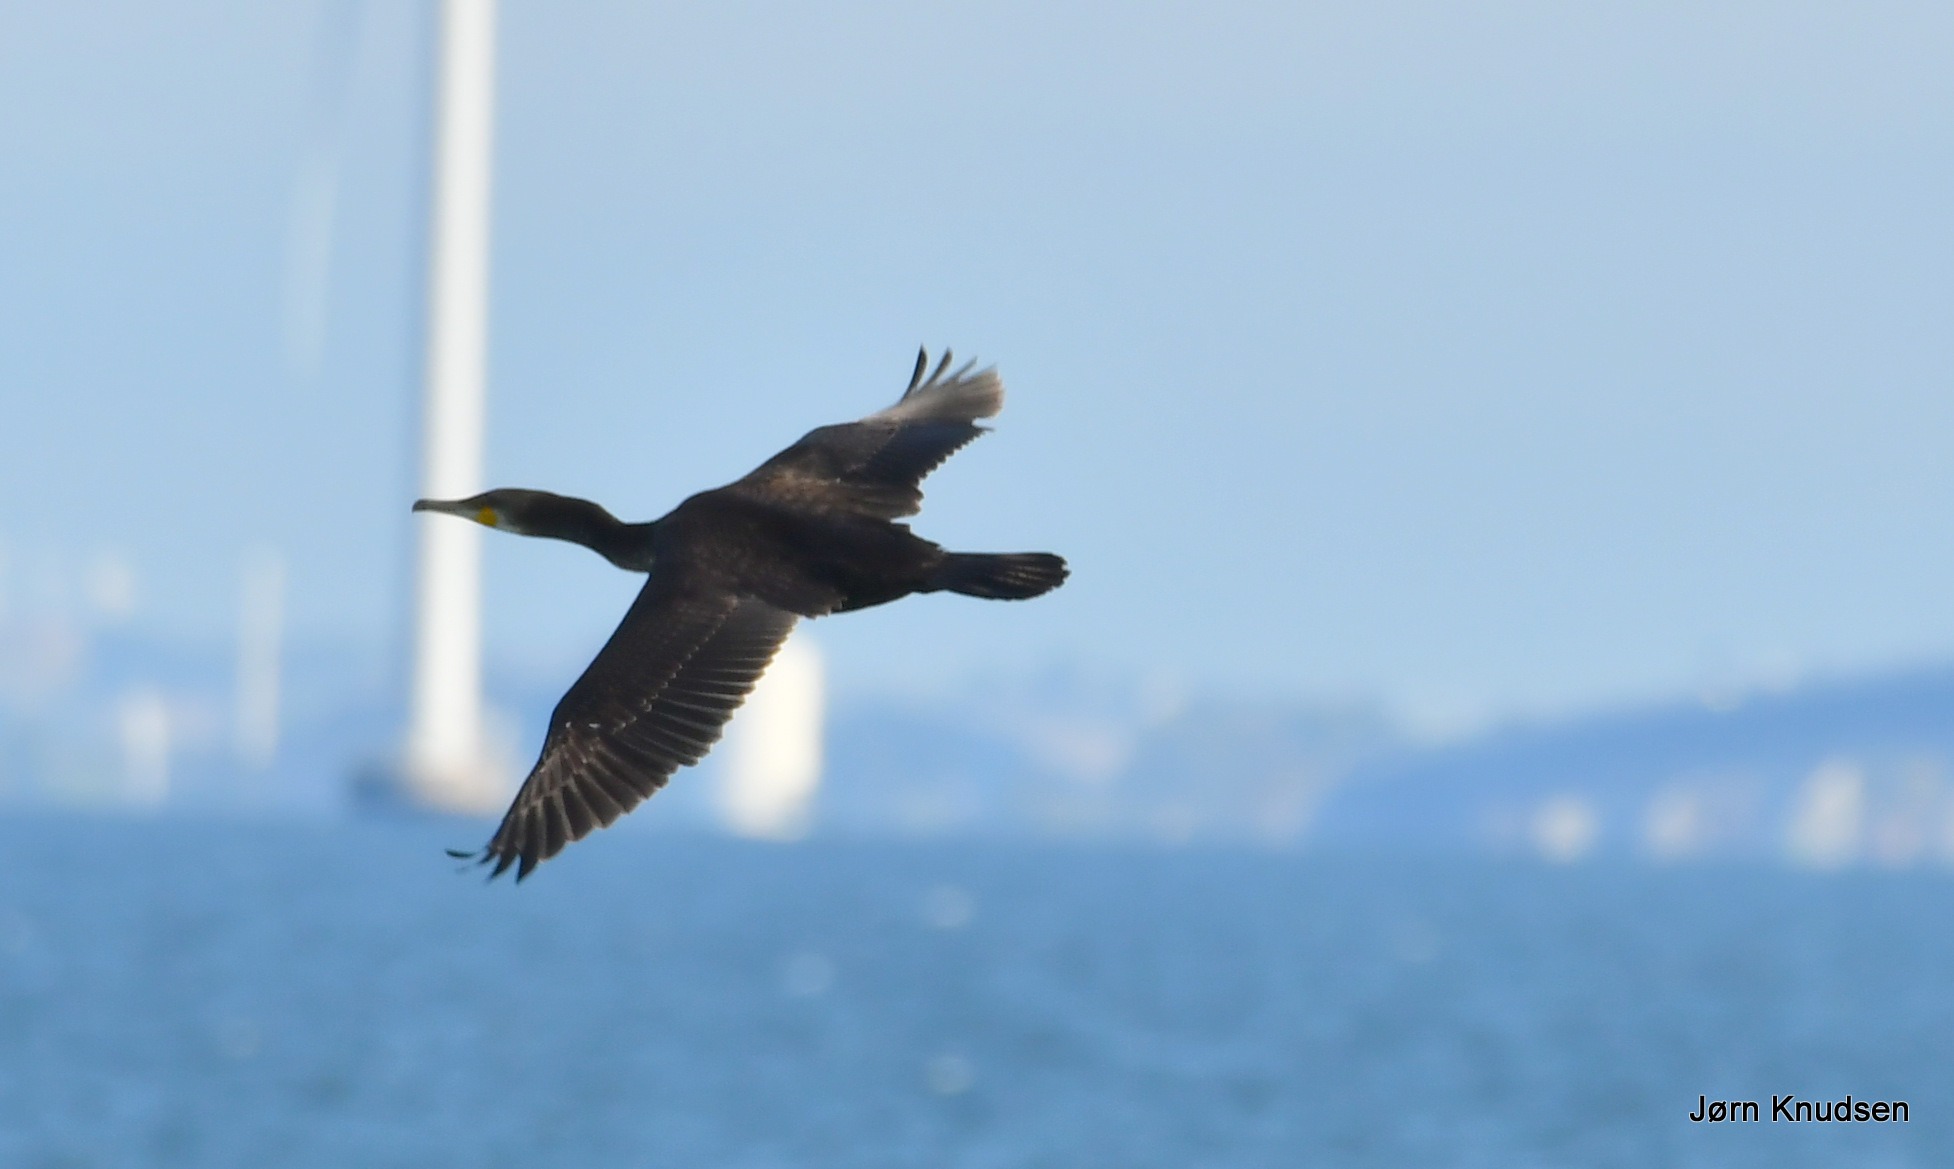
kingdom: Animalia
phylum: Chordata
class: Aves
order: Suliformes
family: Phalacrocoracidae
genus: Phalacrocorax
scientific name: Phalacrocorax carbo
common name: Skarv
